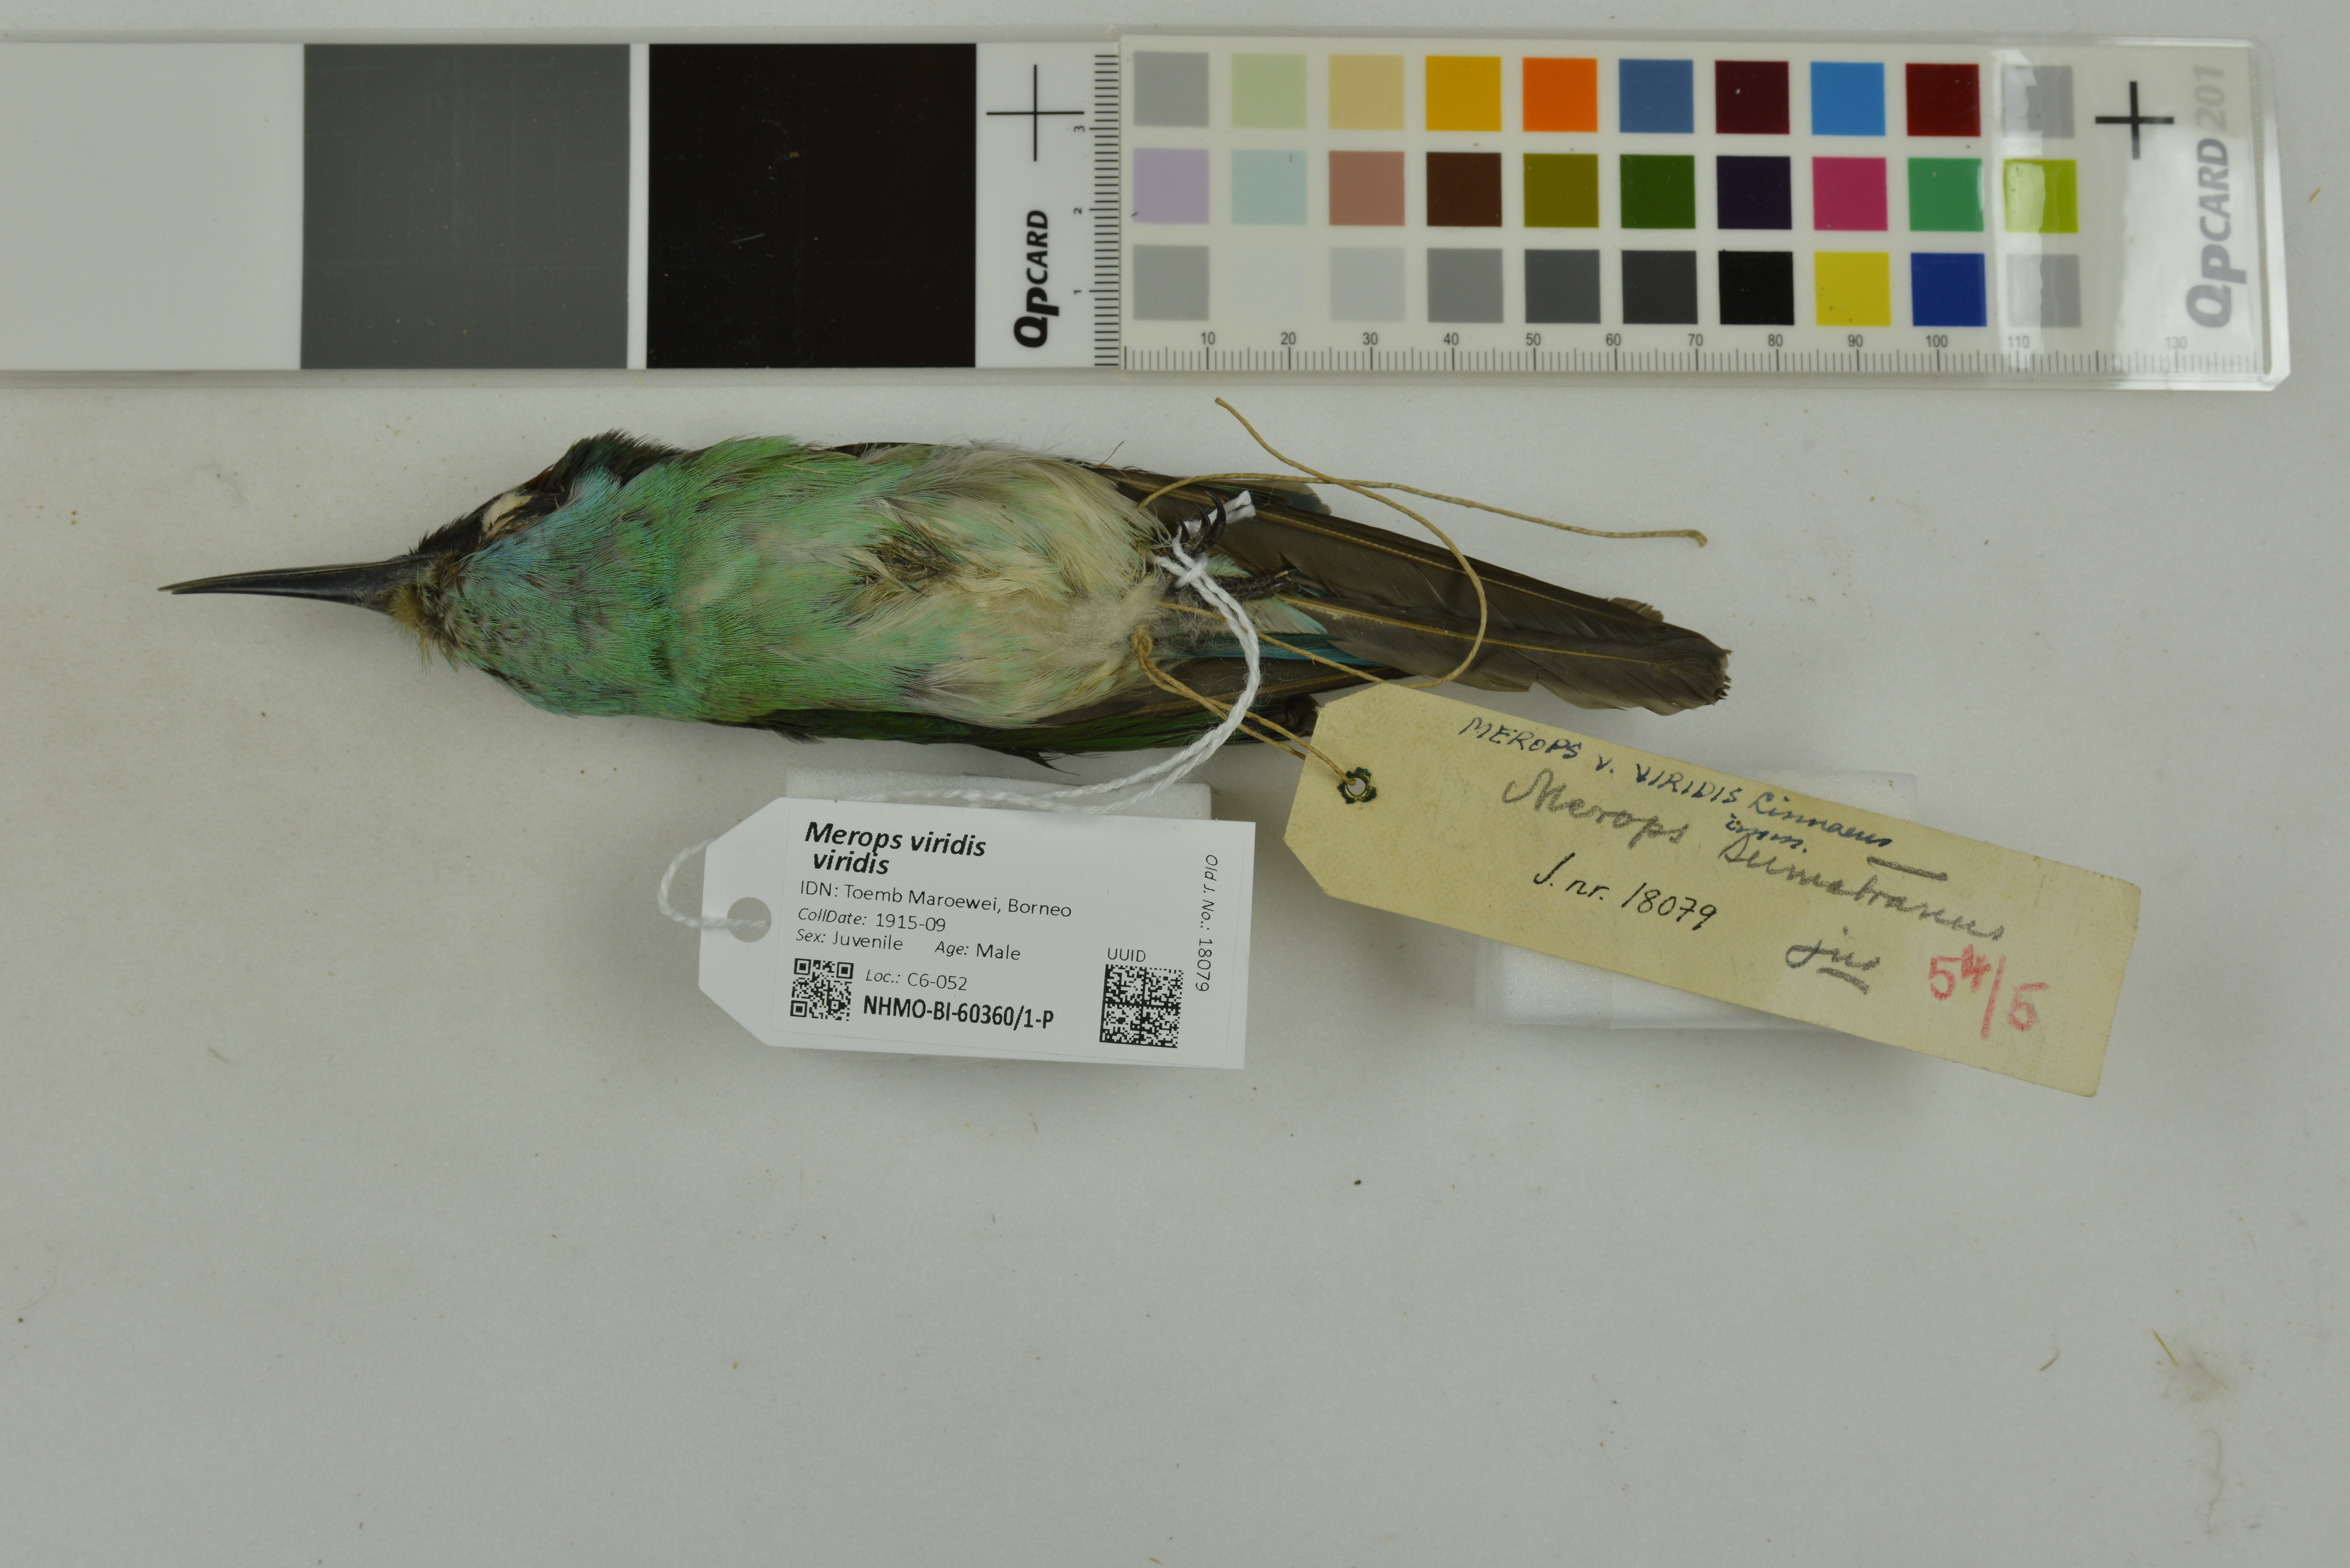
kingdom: Animalia
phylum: Chordata
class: Aves
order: Coraciiformes
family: Meropidae
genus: Merops
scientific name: Merops viridis
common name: Blue-throated bee-eater
